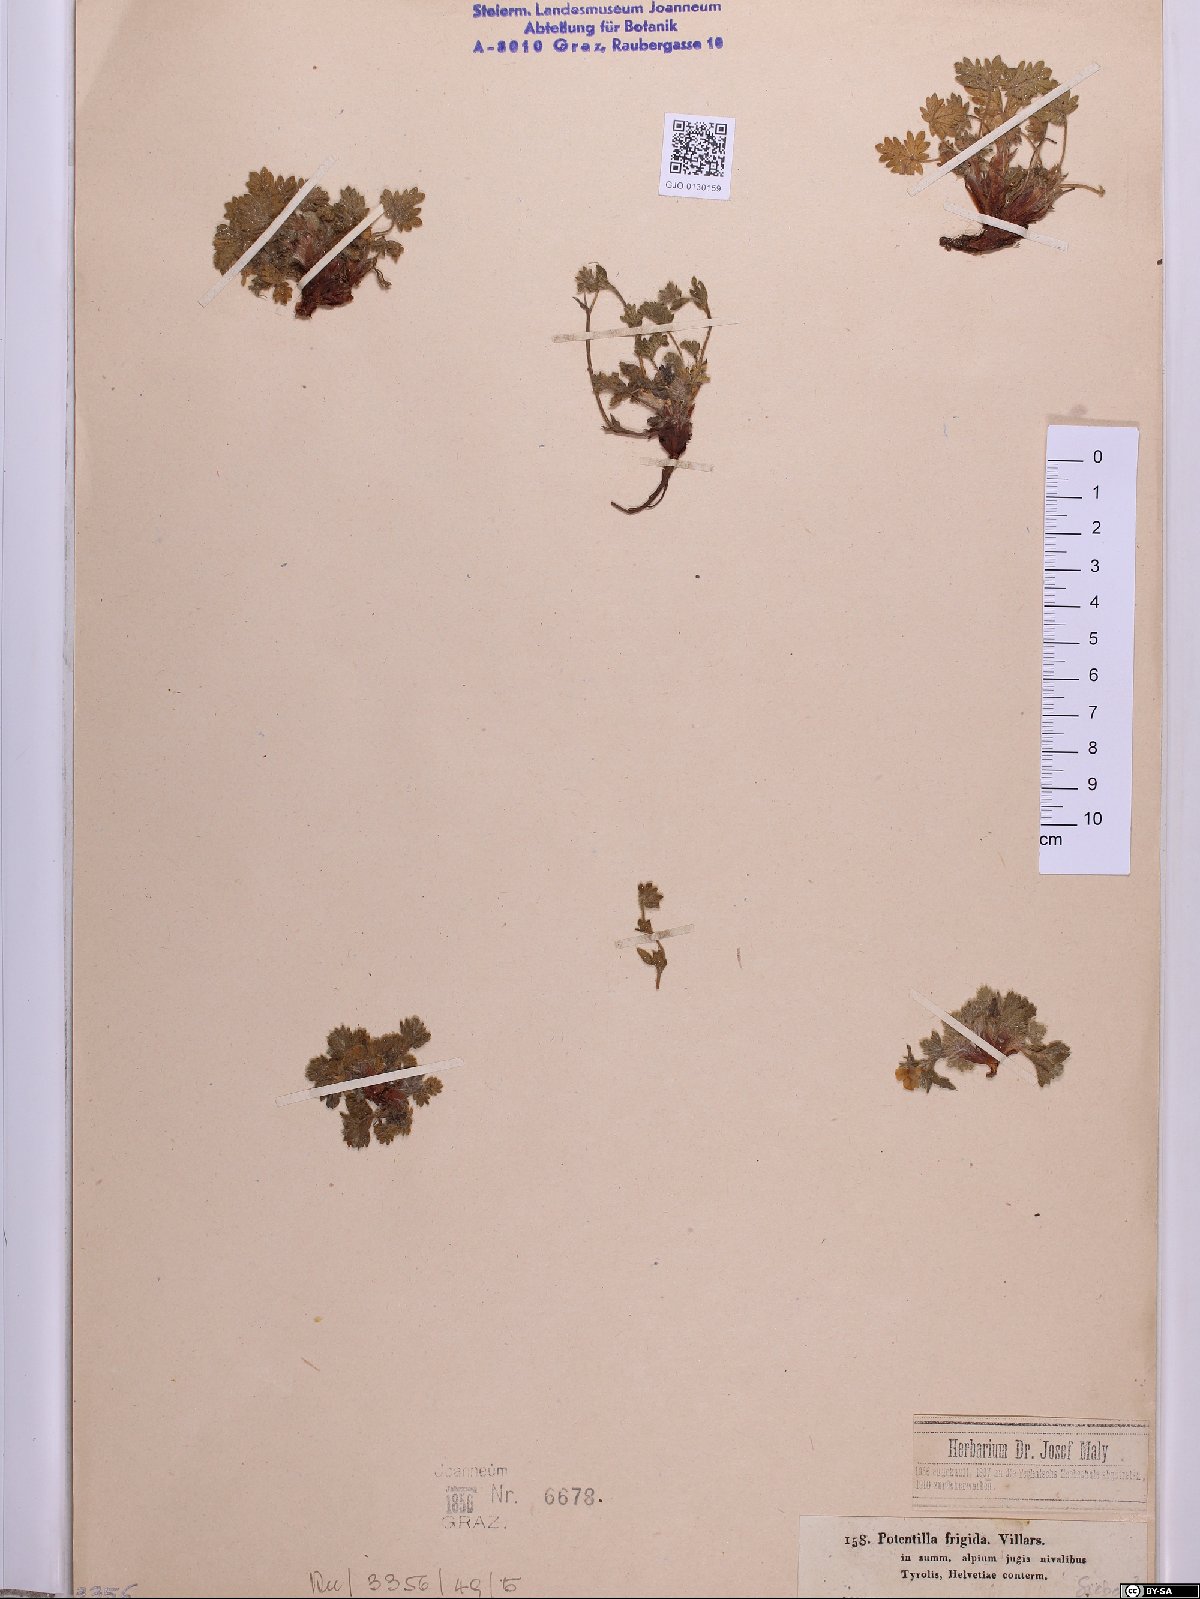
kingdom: Plantae
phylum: Tracheophyta
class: Magnoliopsida
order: Rosales
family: Rosaceae
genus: Potentilla
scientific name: Potentilla frigida
